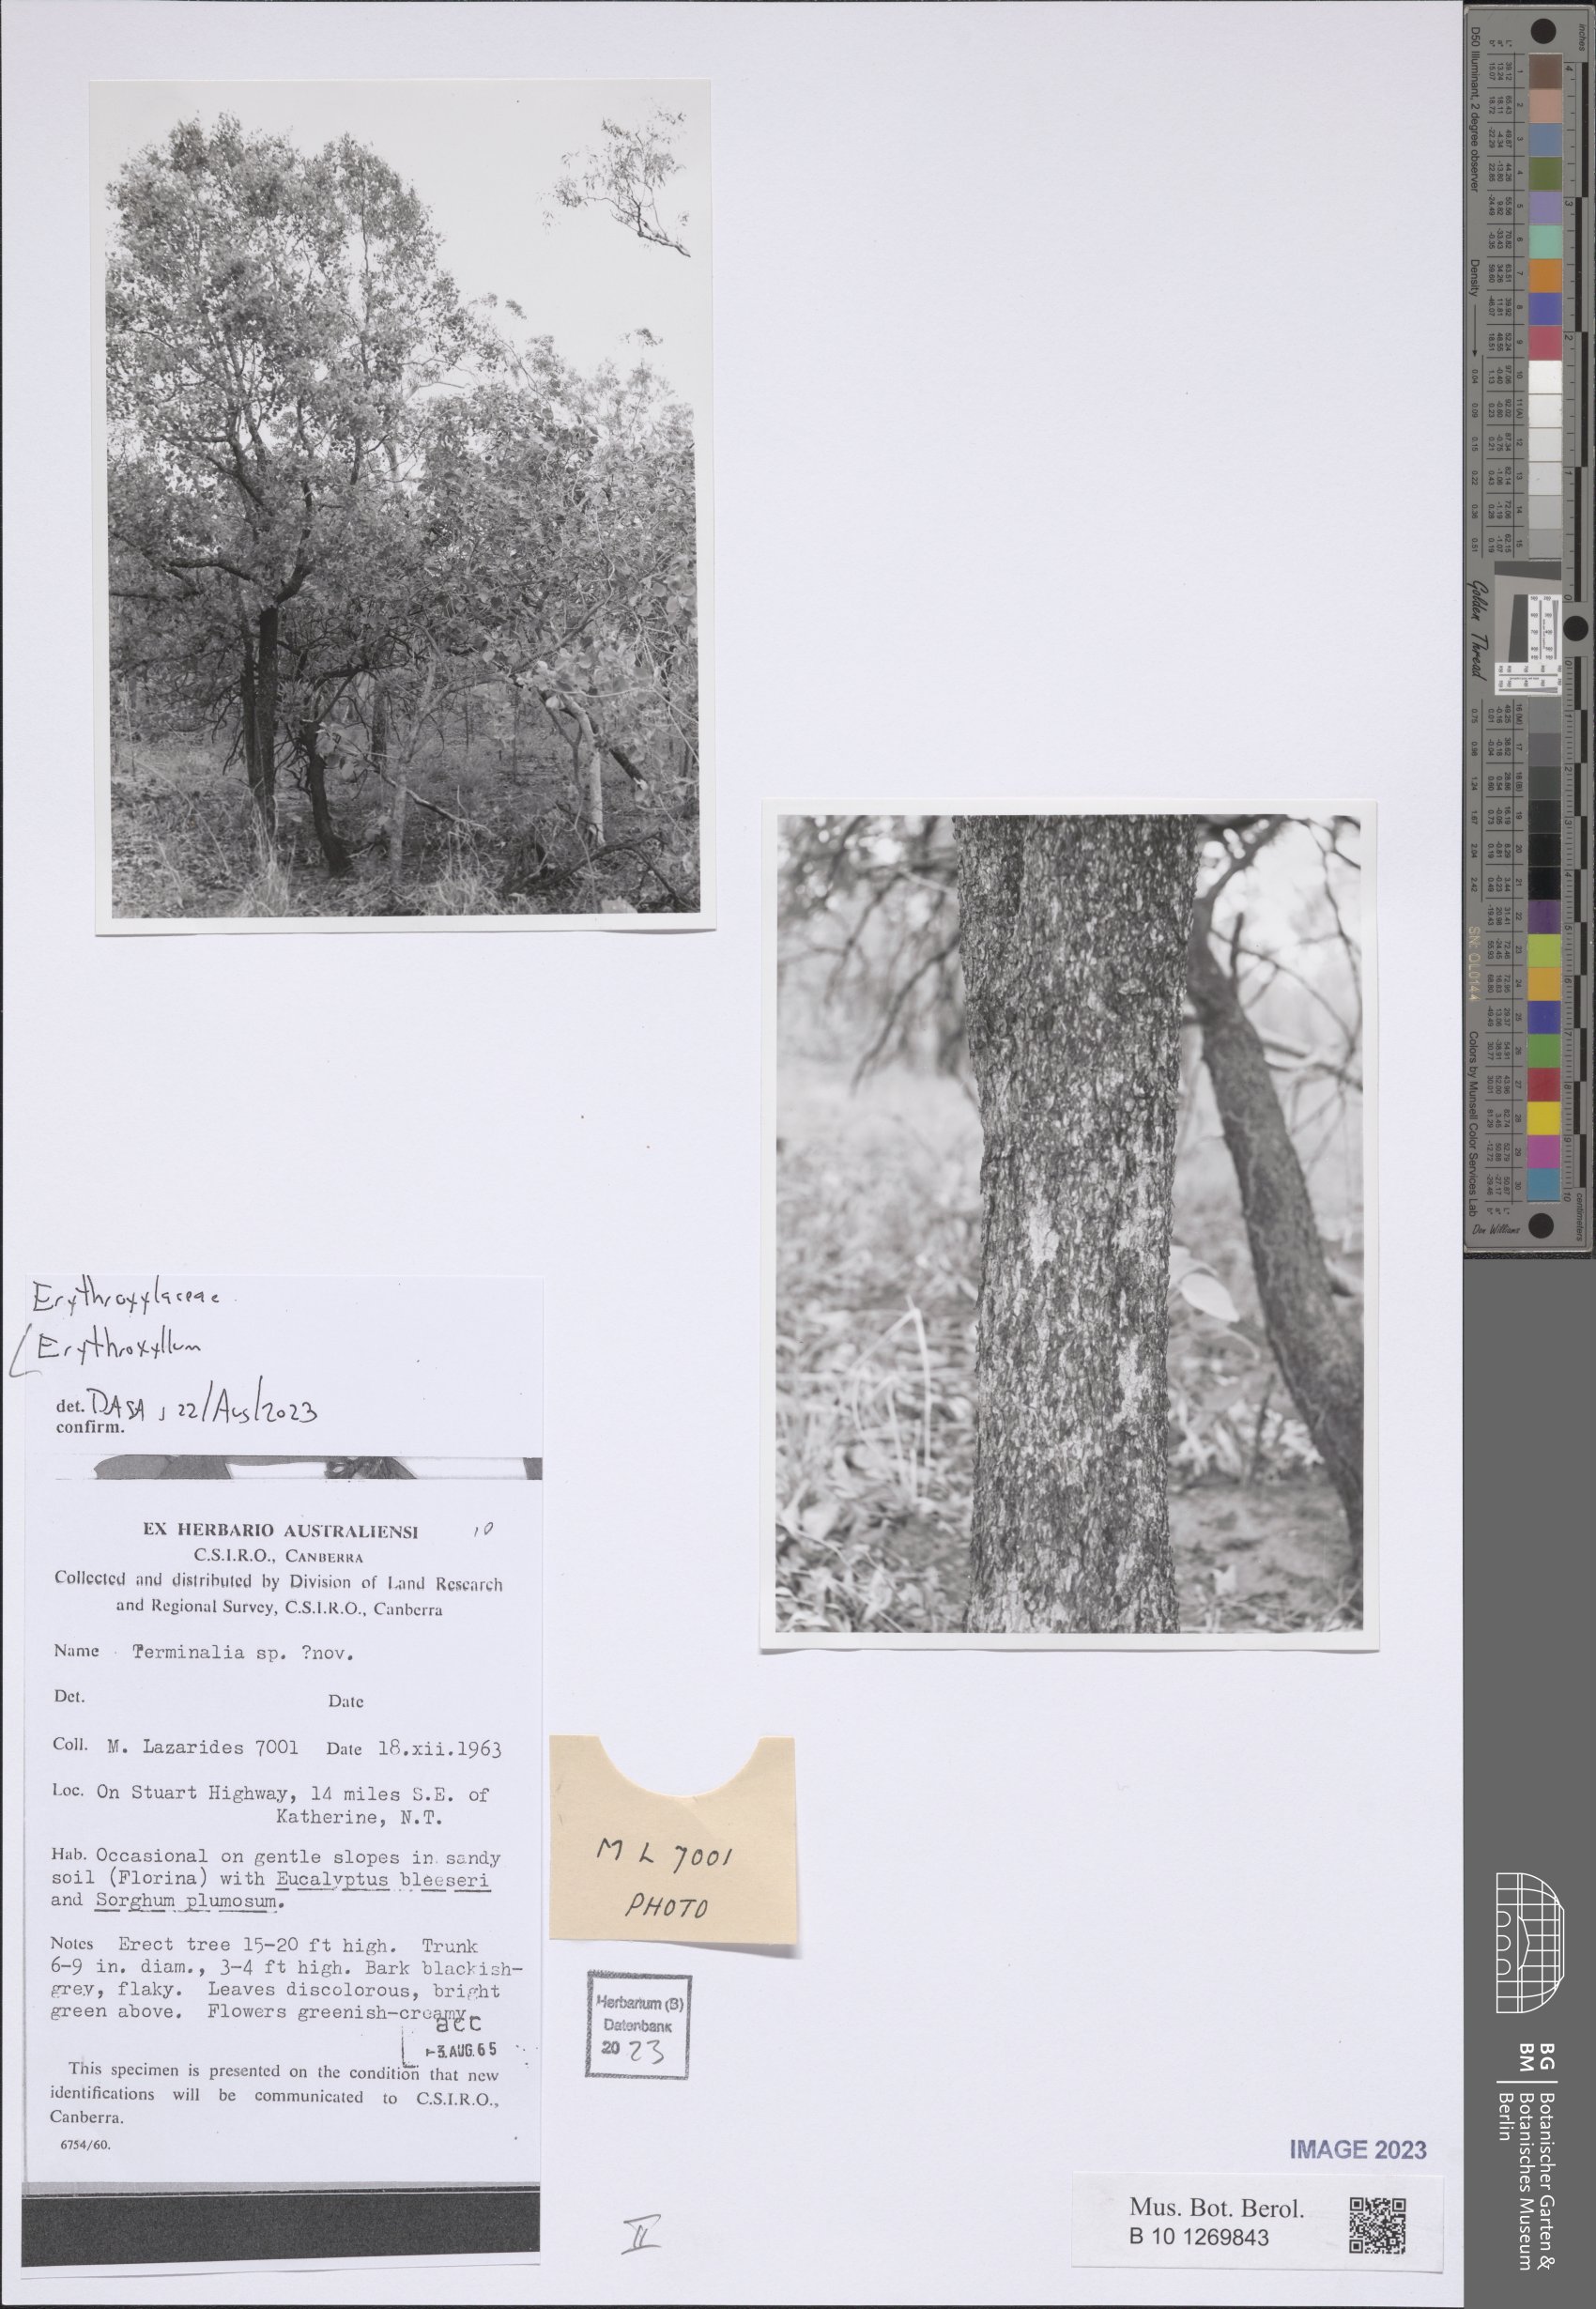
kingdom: Plantae
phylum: Tracheophyta
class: Magnoliopsida
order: Malpighiales
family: Erythroxylaceae
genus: Erythroxylum
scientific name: Erythroxylum
